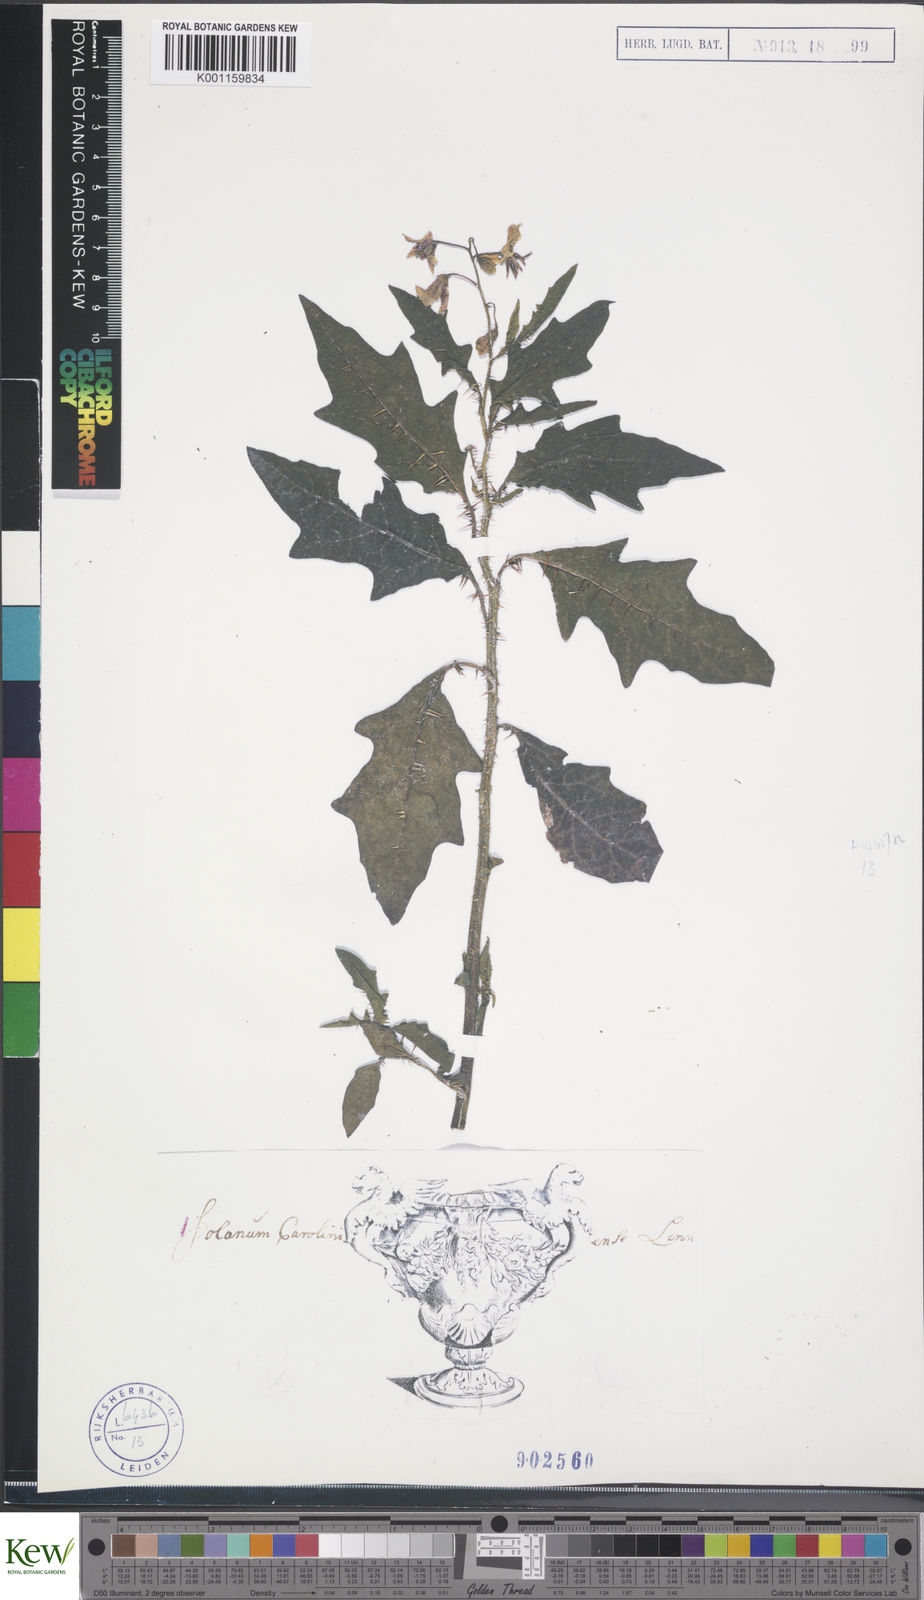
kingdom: Plantae
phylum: Tracheophyta
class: Magnoliopsida
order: Solanales
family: Solanaceae
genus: Solanum
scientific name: Solanum carolinense
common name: Horse-nettle
